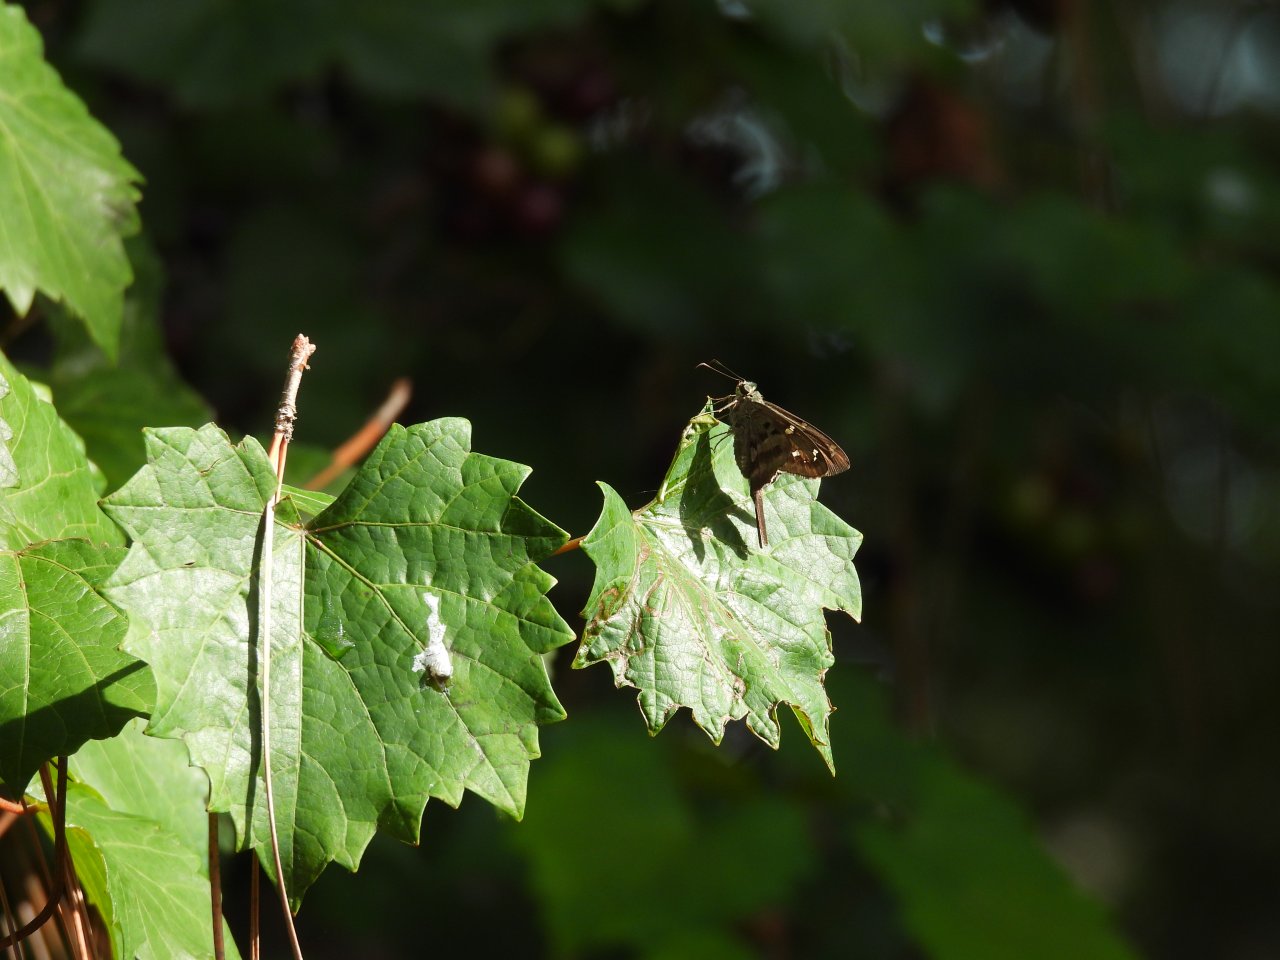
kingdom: Animalia
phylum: Arthropoda
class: Insecta
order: Lepidoptera
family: Hesperiidae
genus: Urbanus
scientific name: Urbanus proteus
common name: Long-tailed Skipper
